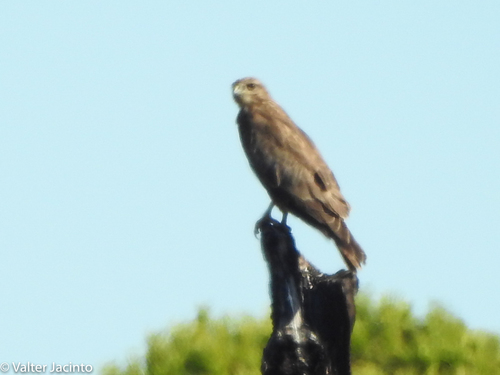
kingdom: Animalia
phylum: Chordata
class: Aves
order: Accipitriformes
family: Accipitridae
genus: Buteo
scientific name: Buteo buteo
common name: Common buzzard
